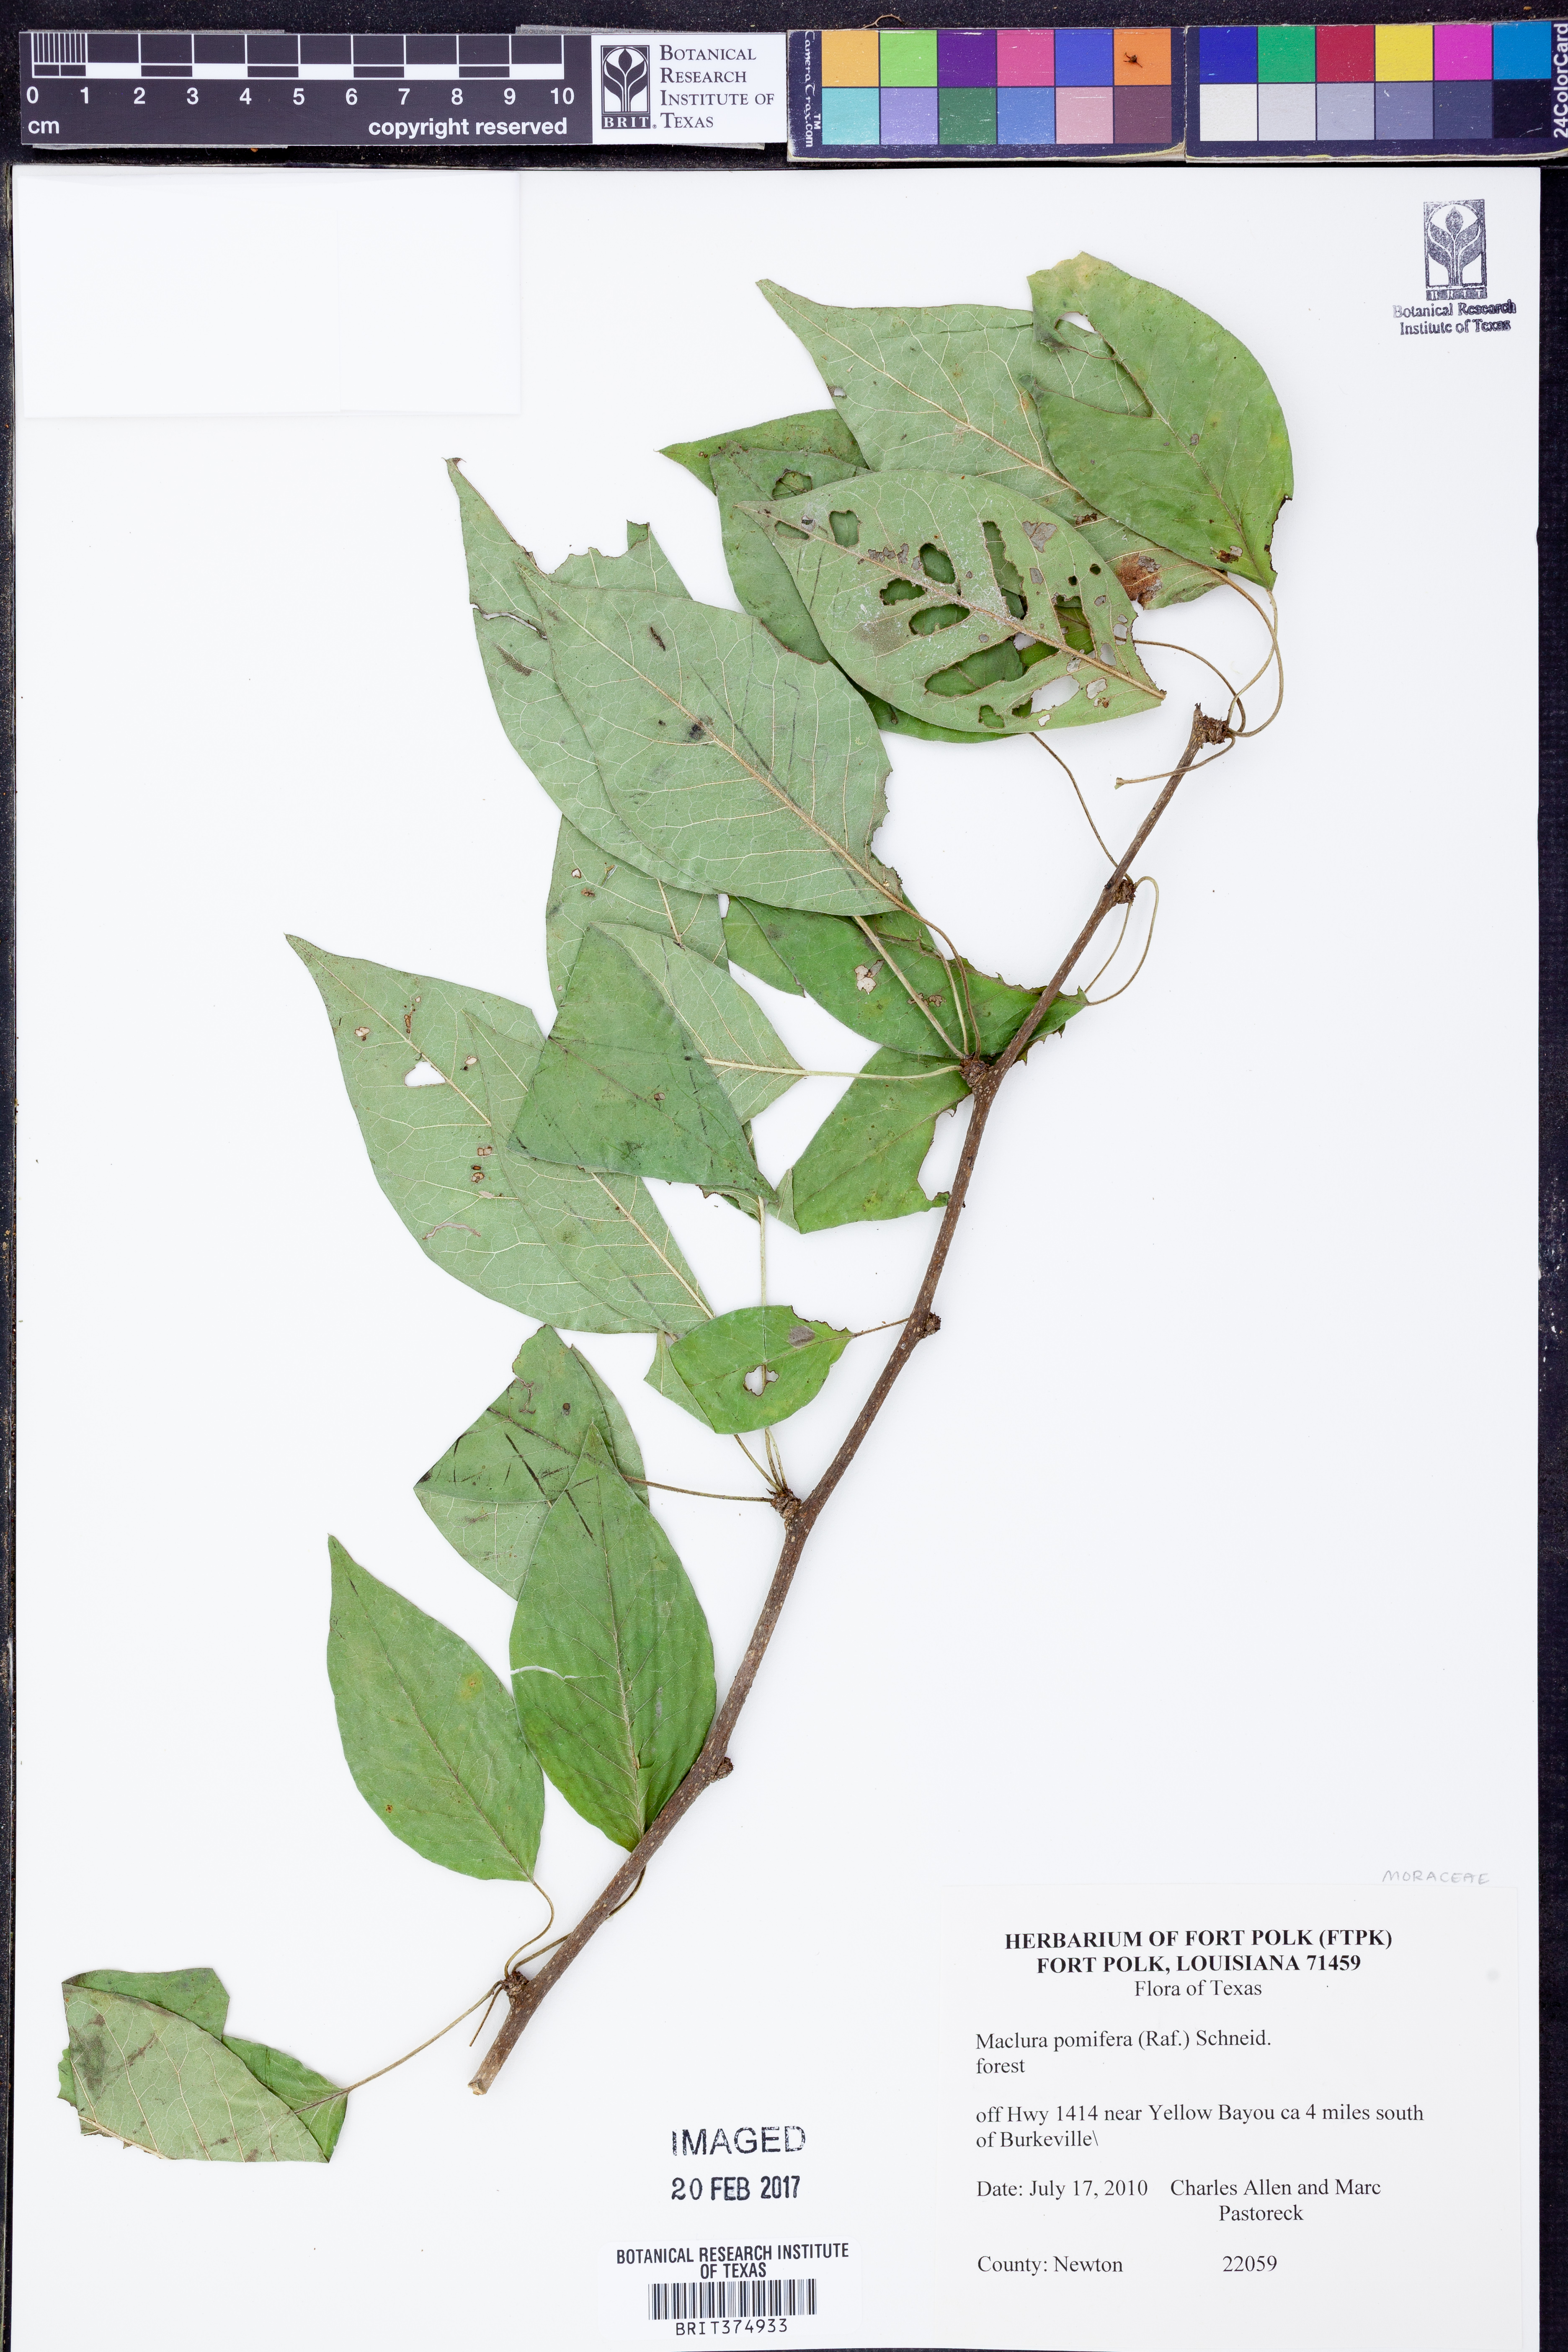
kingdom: Plantae
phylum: Tracheophyta
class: Magnoliopsida
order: Rosales
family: Moraceae
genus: Maclura
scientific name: Maclura pomifera
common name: Osage-orange
